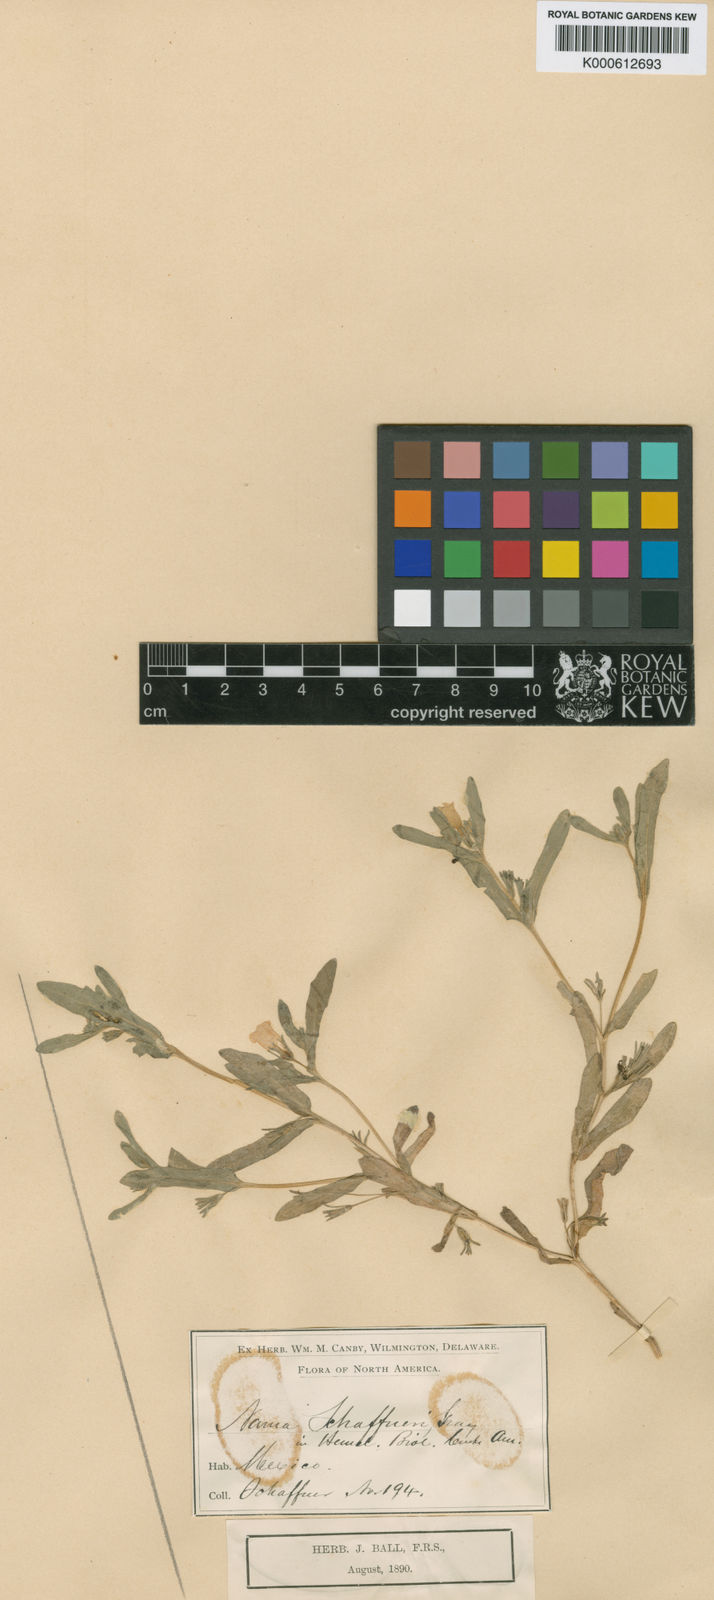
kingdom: Plantae
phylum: Tracheophyta
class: Magnoliopsida
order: Boraginales
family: Namaceae
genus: Nama
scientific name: Nama
